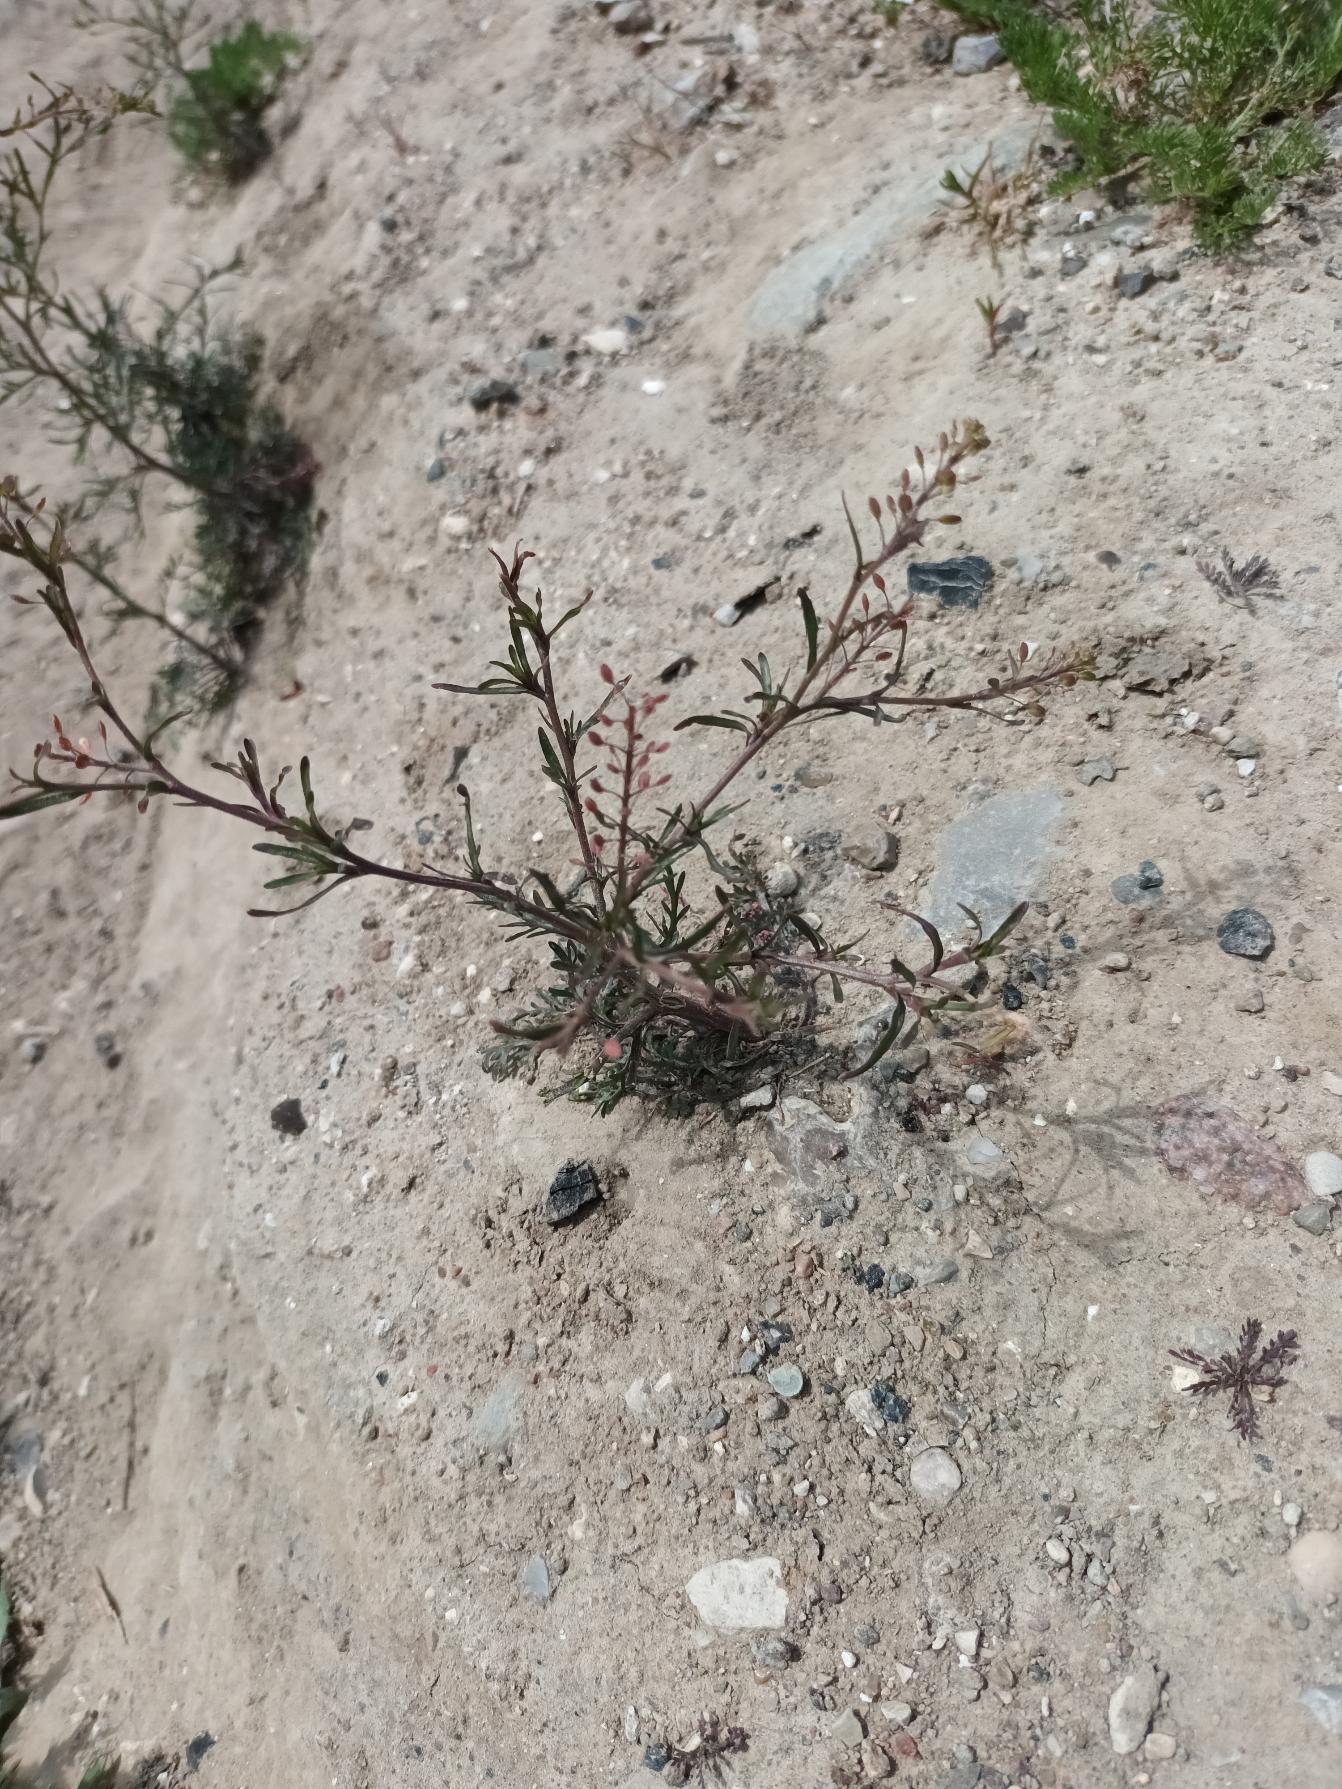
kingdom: Plantae
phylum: Tracheophyta
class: Magnoliopsida
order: Brassicales
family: Brassicaceae
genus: Lepidium
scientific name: Lepidium ruderale
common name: Stinkende karse
